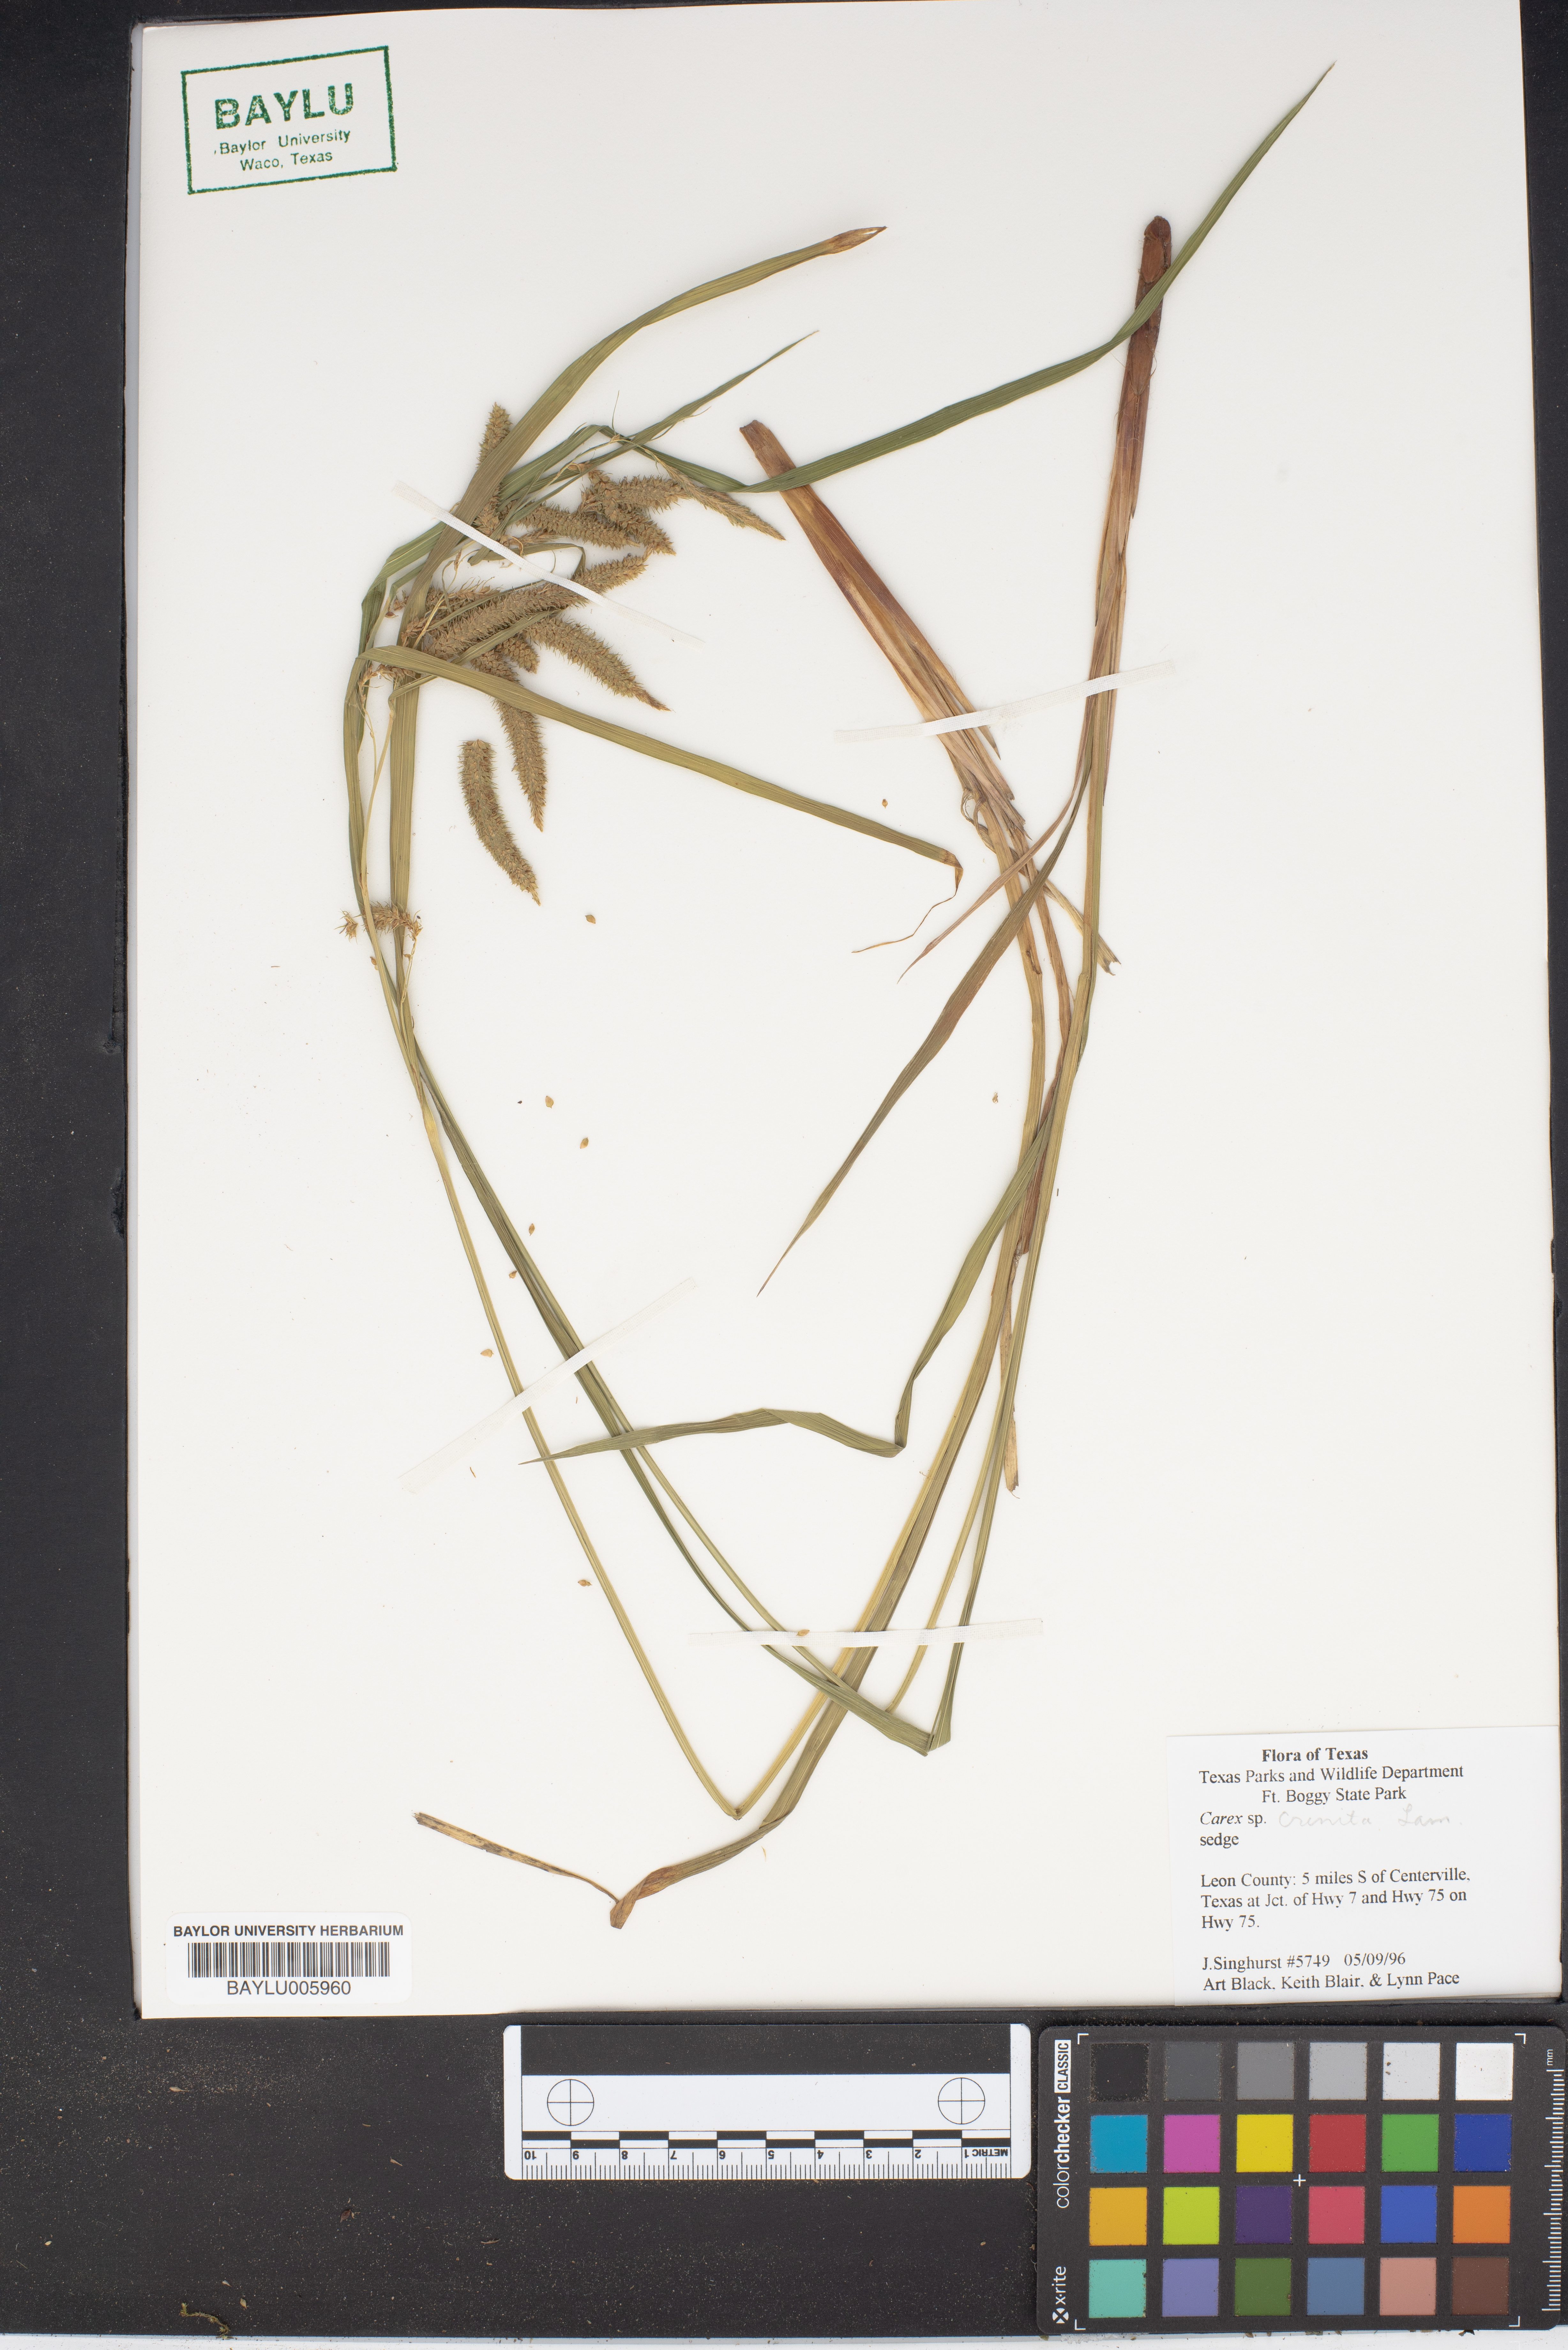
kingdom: Plantae
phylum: Tracheophyta
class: Liliopsida
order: Poales
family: Cyperaceae
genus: Carex
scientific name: Carex
